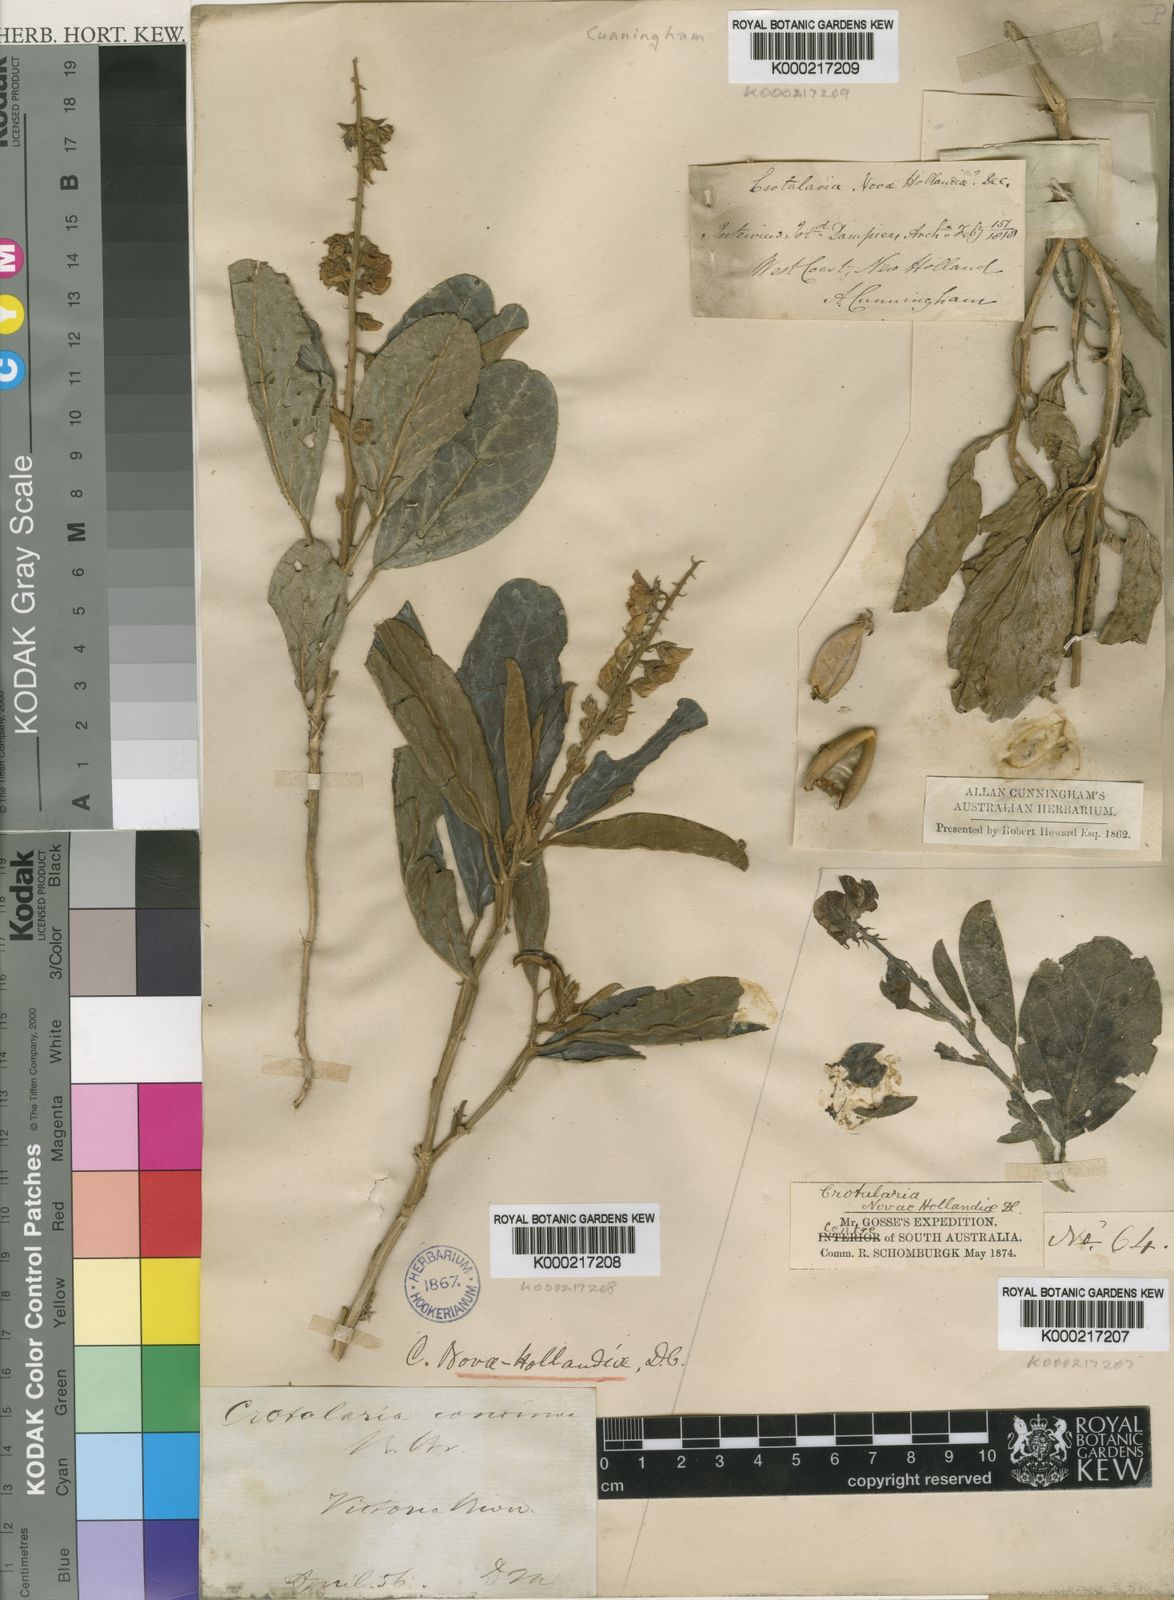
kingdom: Plantae
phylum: Tracheophyta
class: Magnoliopsida
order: Fabales
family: Fabaceae
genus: Crotalaria
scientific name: Crotalaria novae-hollandiae
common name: New holland rattlepod
